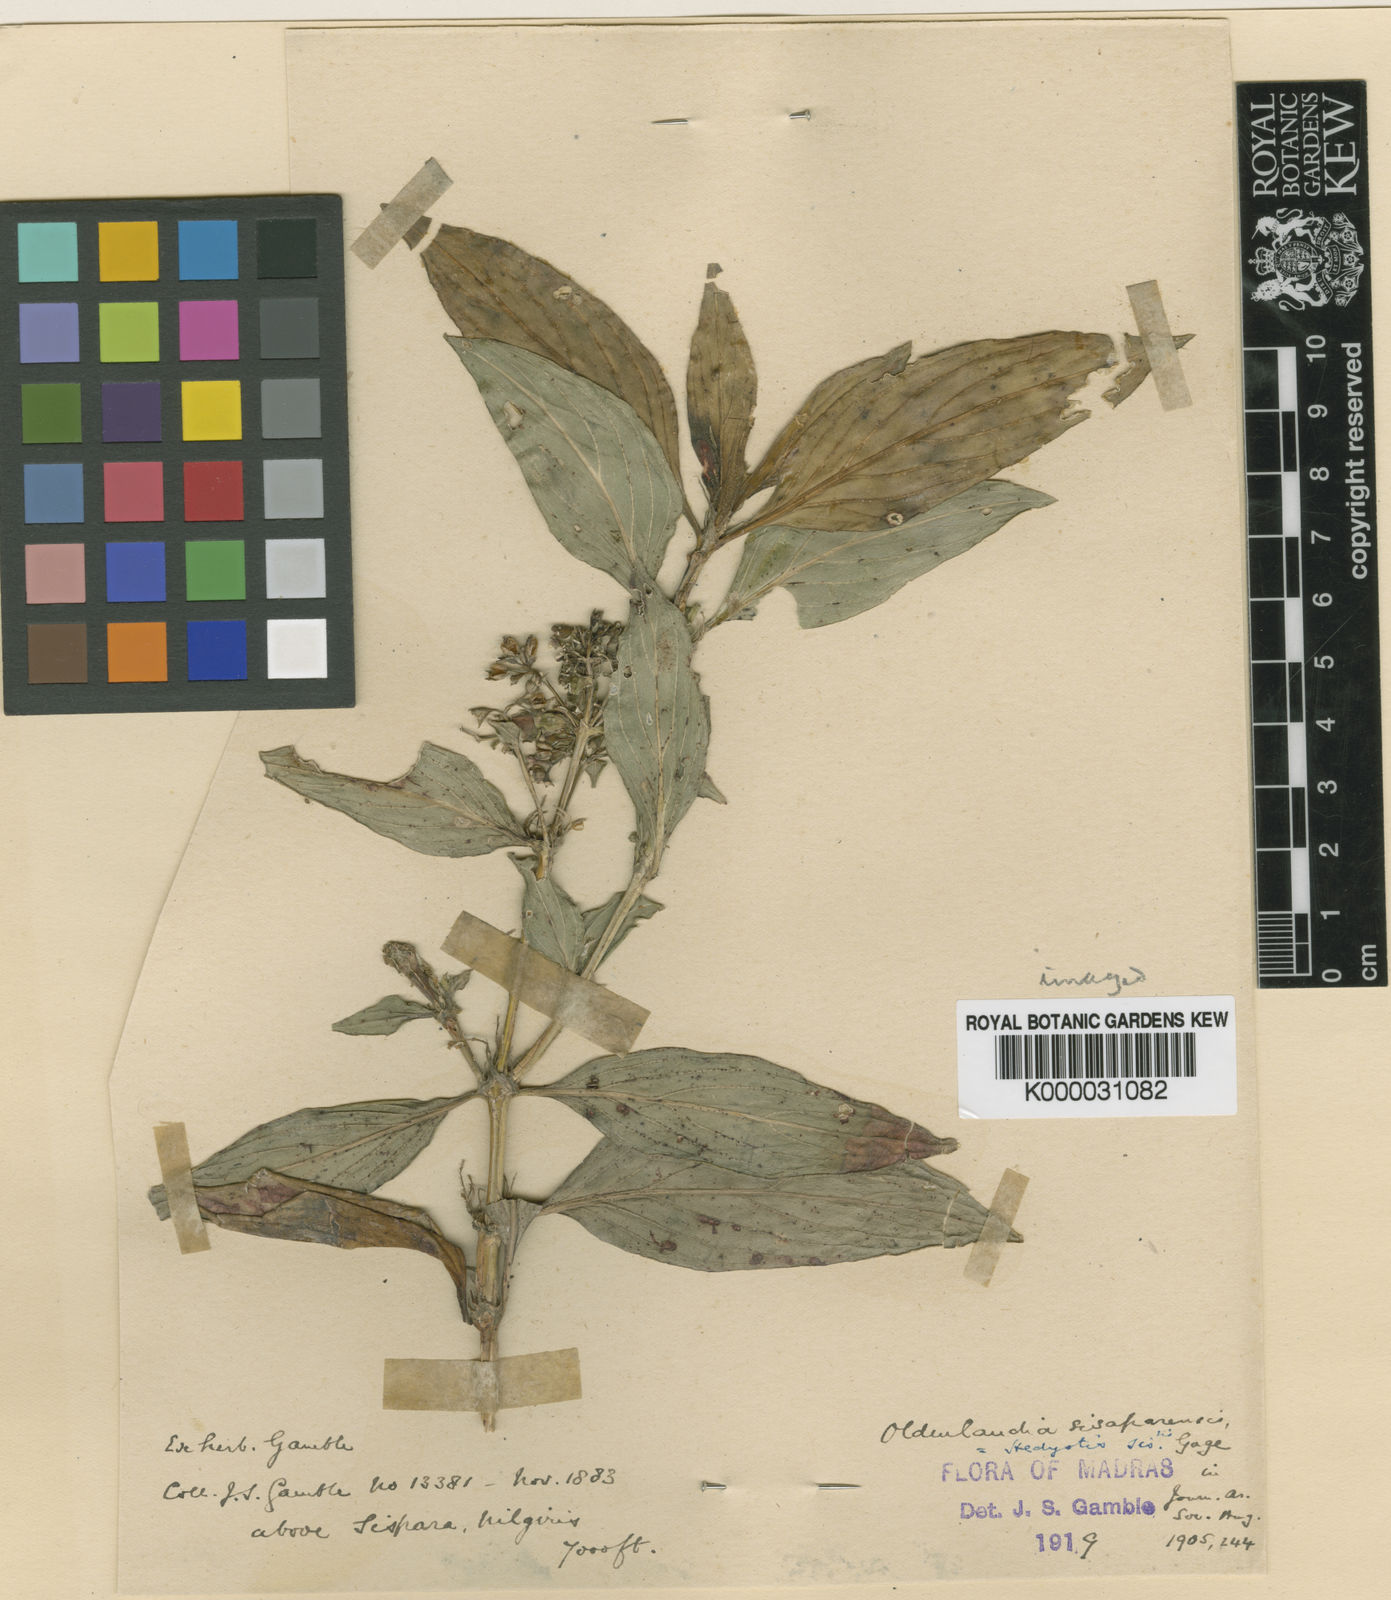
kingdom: Plantae
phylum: Tracheophyta
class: Magnoliopsida
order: Gentianales
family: Rubiaceae
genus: Hedyotis
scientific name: Hedyotis leschenaultiana
